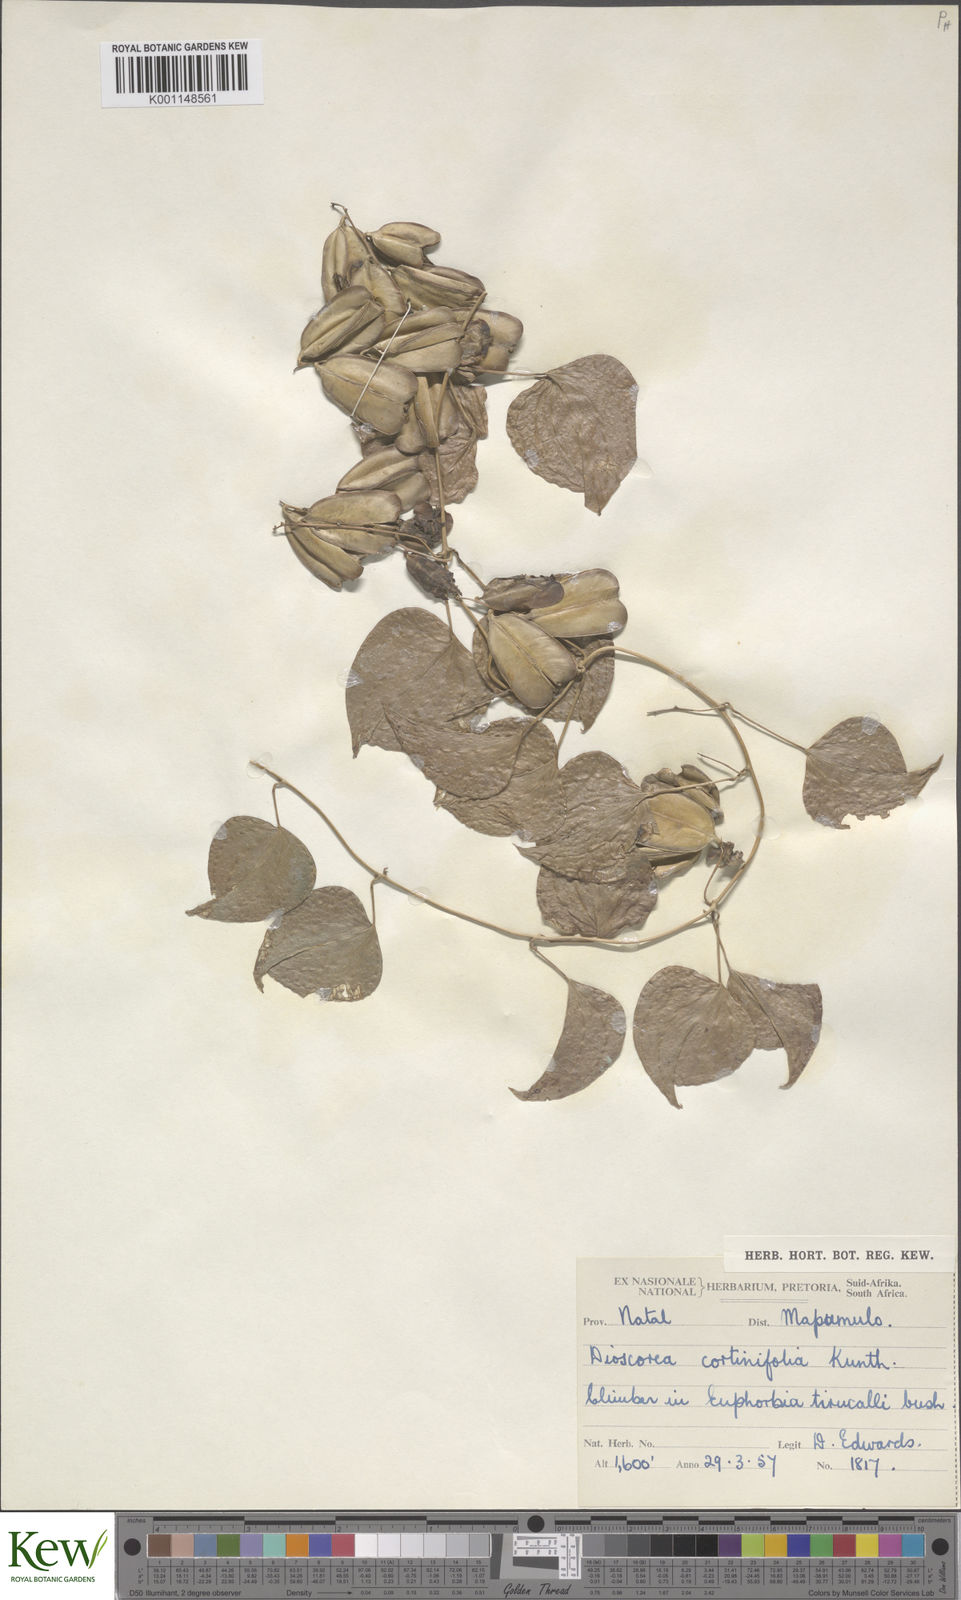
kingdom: Plantae
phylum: Tracheophyta
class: Liliopsida
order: Dioscoreales
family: Dioscoreaceae
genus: Dioscorea
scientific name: Dioscorea cotinifolia
